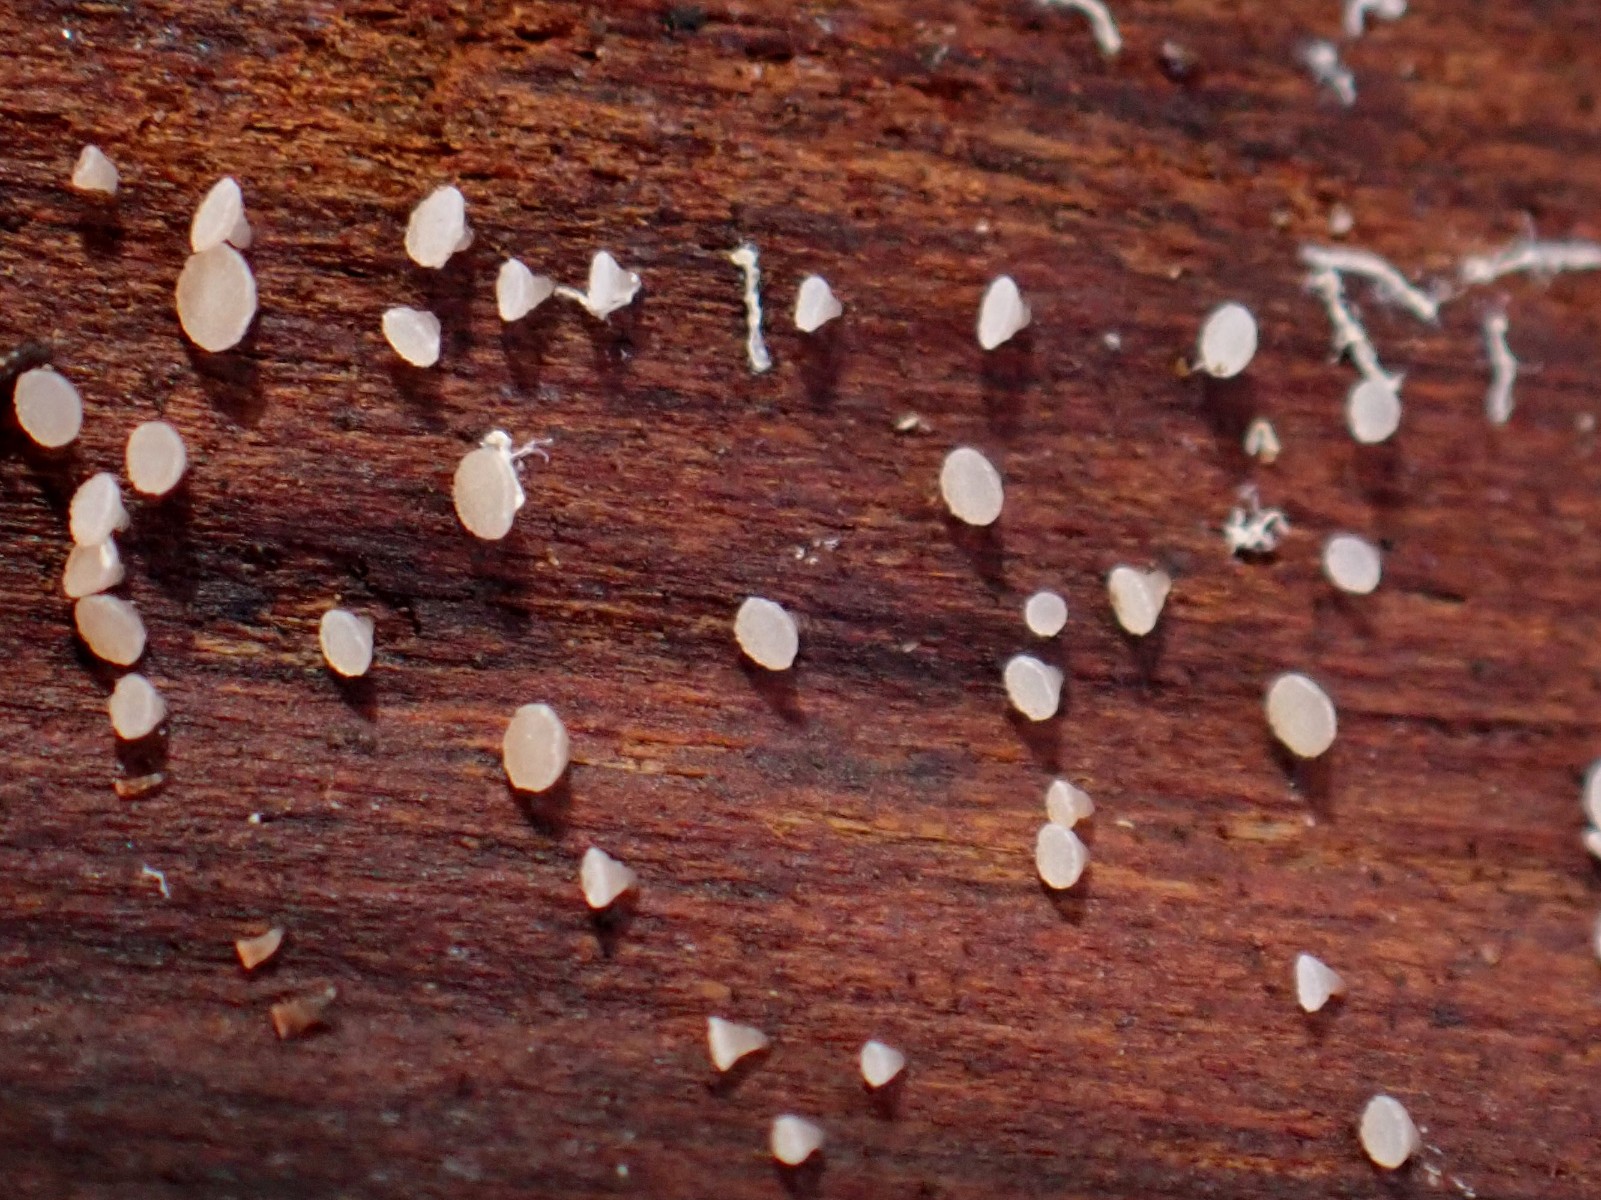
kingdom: Fungi
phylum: Ascomycota
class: Leotiomycetes
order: Helotiales
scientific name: Helotiales
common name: stilkskiveordenen
